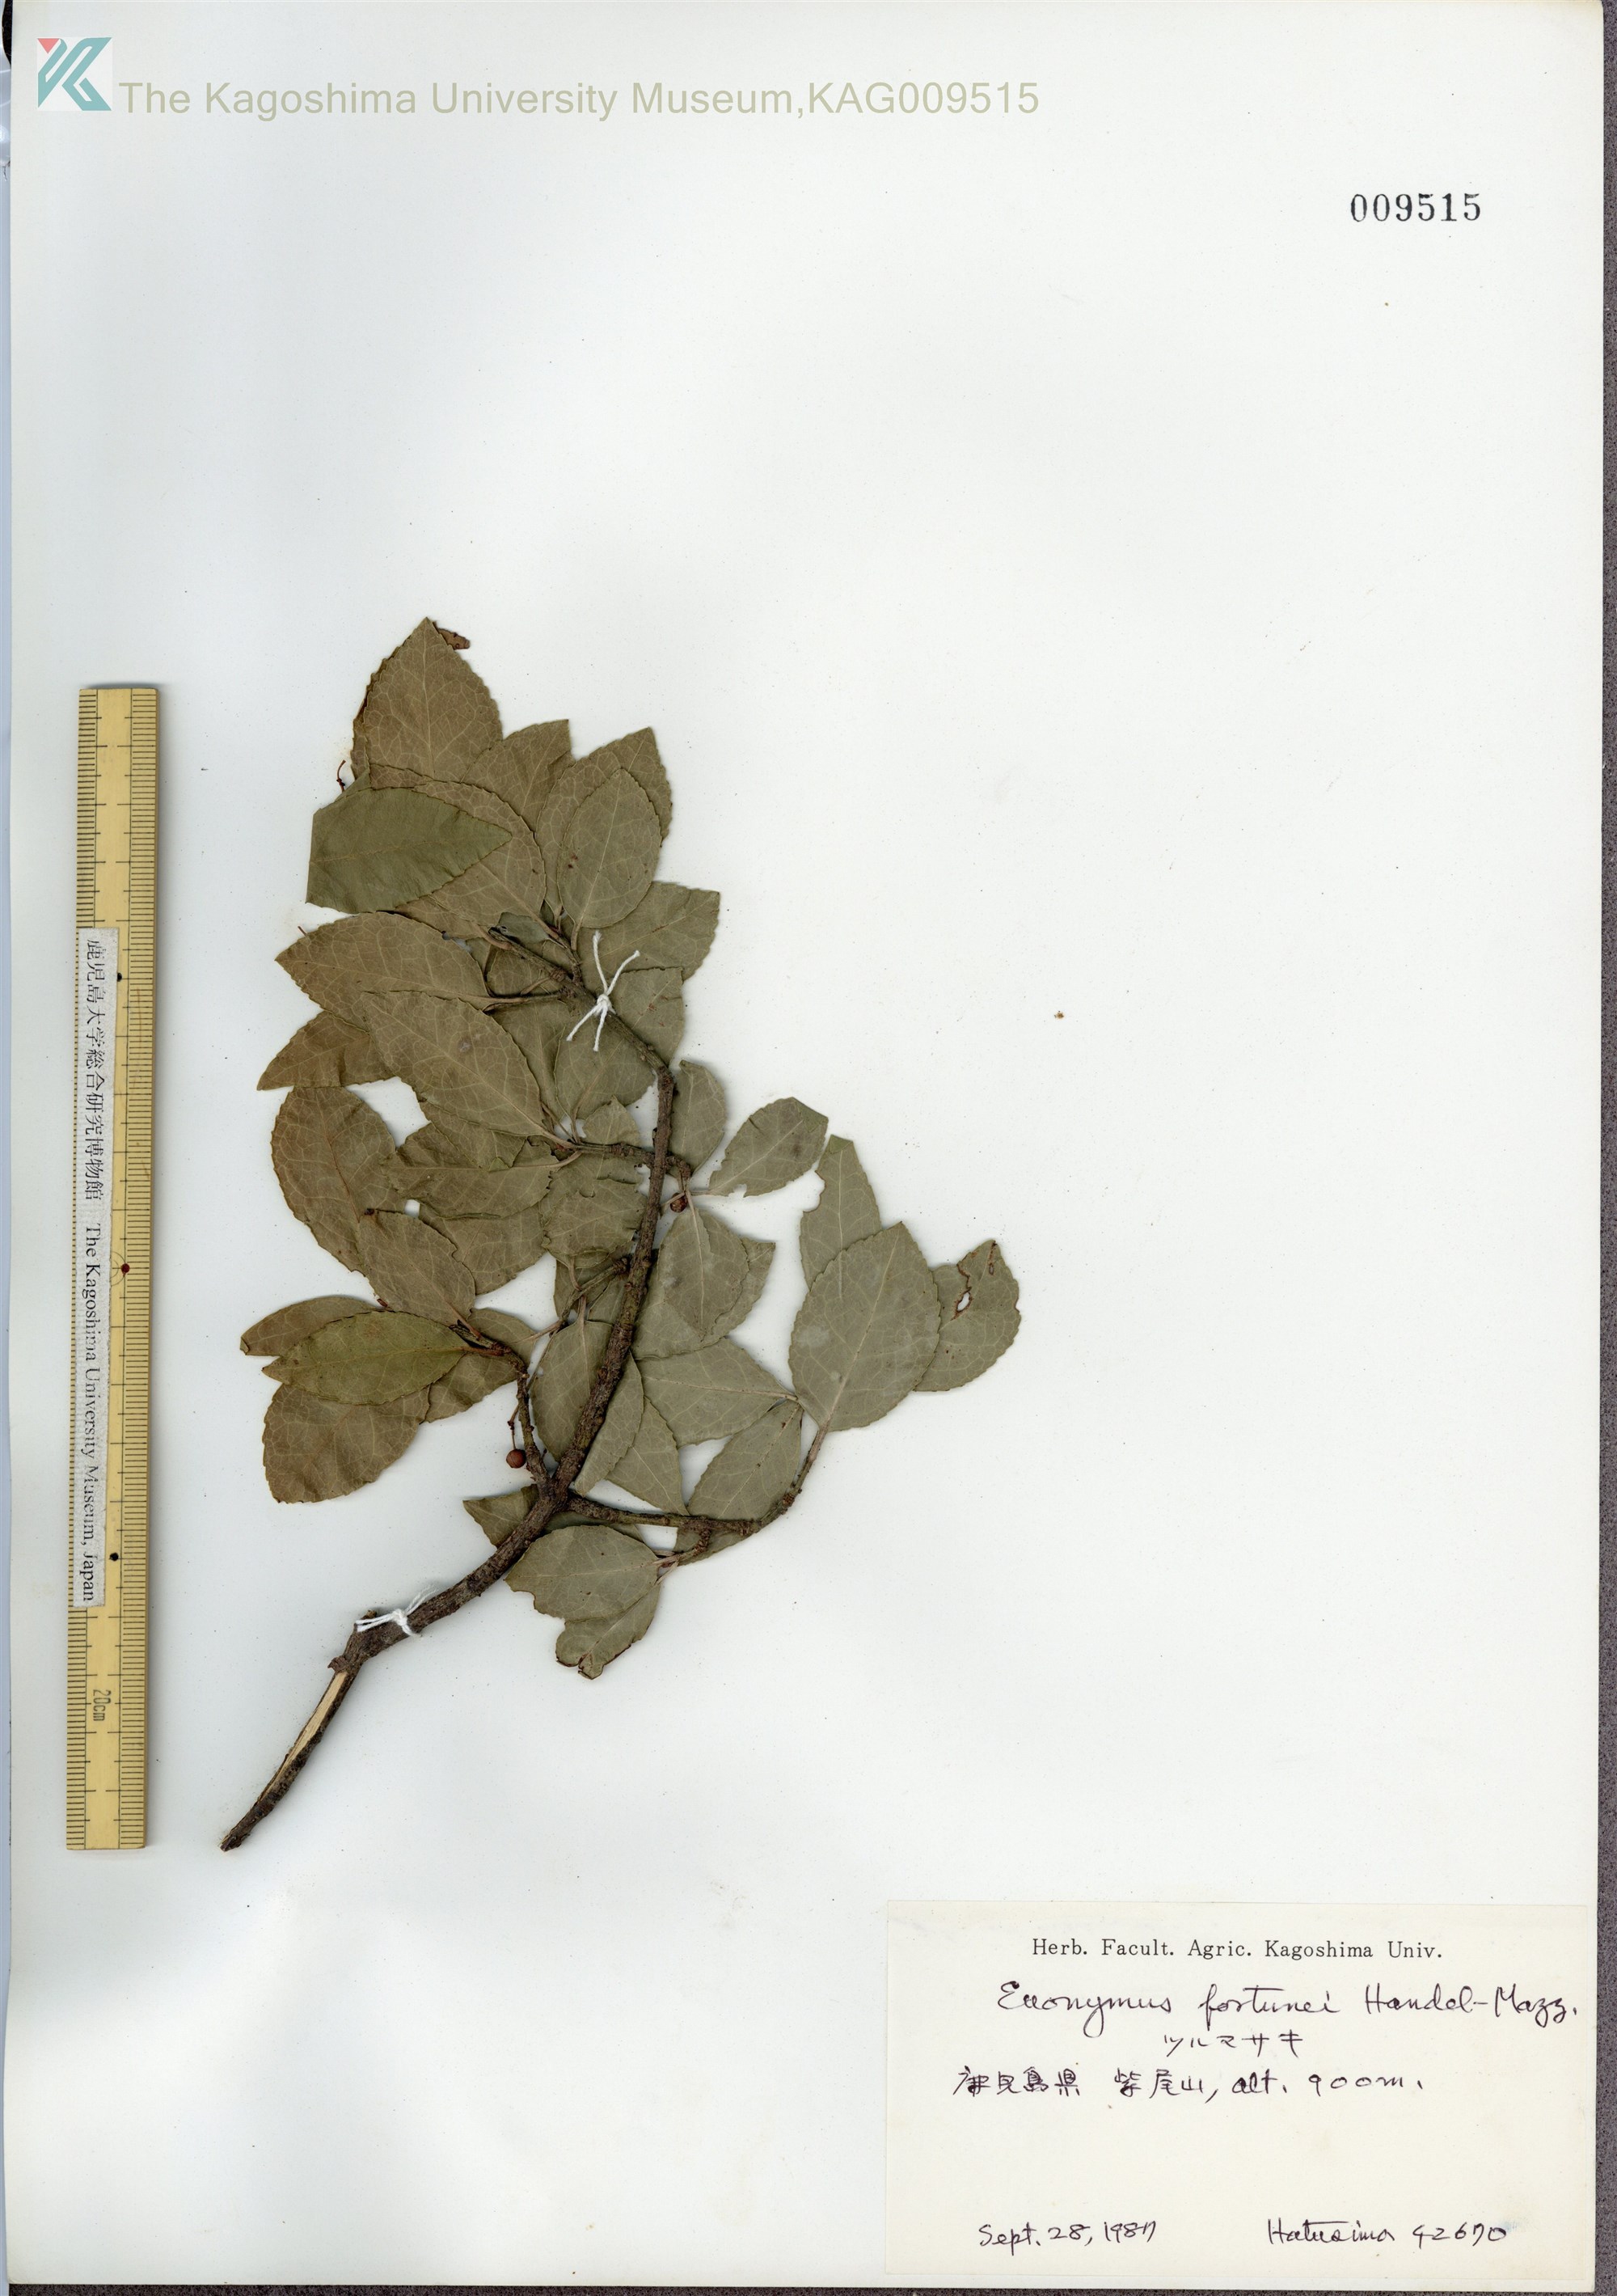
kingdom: Plantae
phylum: Tracheophyta
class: Magnoliopsida
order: Celastrales
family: Celastraceae
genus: Euonymus
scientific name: Euonymus fortunei
